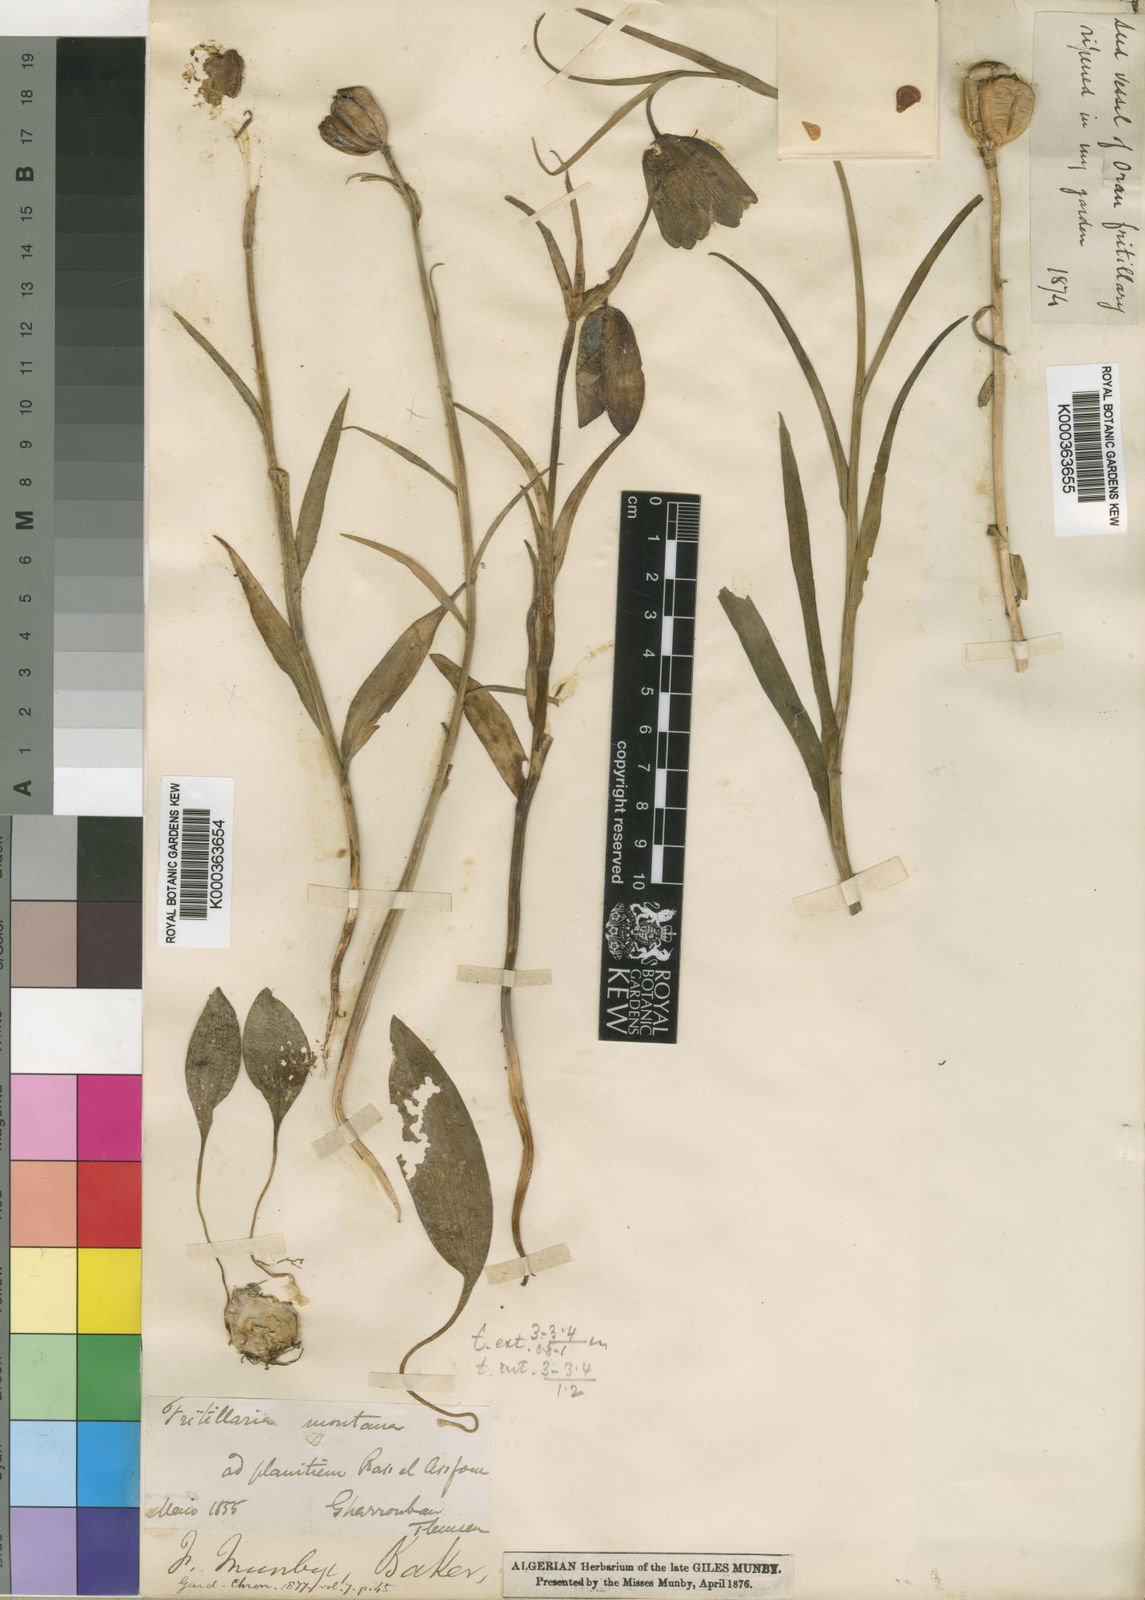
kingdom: Plantae
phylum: Tracheophyta
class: Liliopsida
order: Liliales
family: Liliaceae
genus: Fritillaria
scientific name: Fritillaria oranensis
